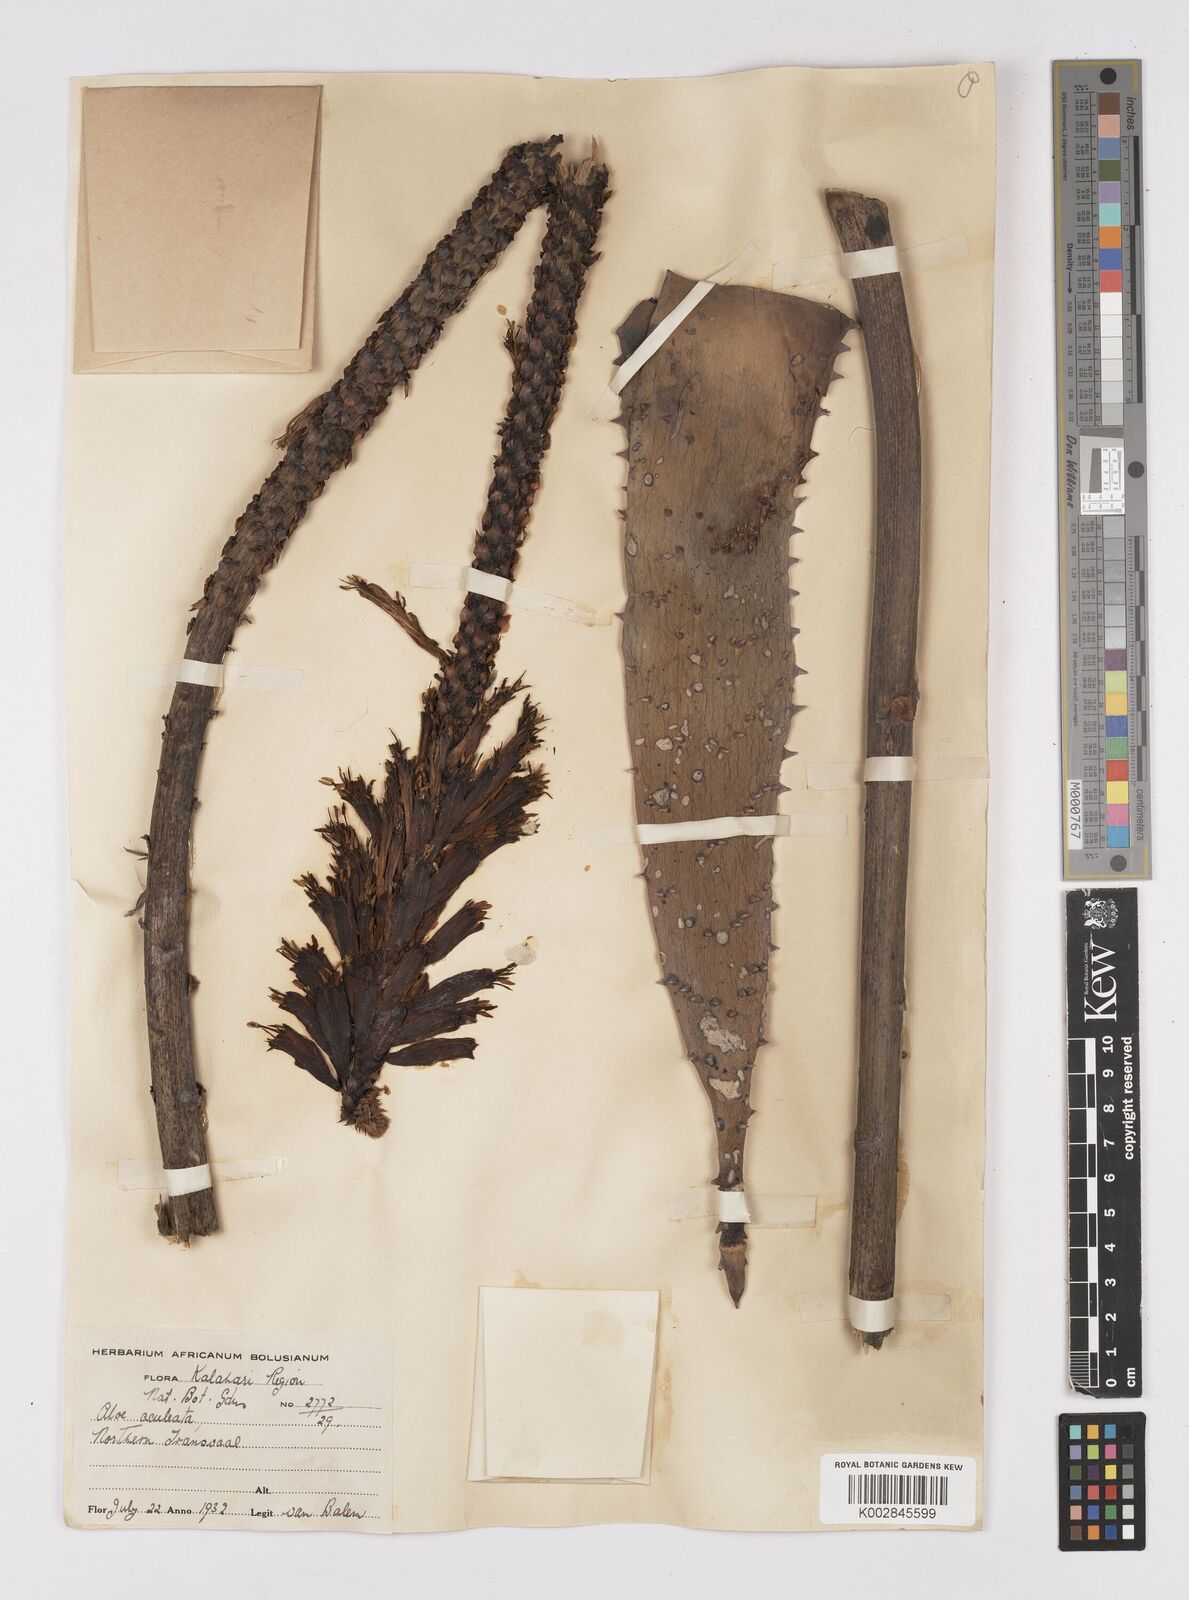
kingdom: Plantae
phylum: Tracheophyta
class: Liliopsida
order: Asparagales
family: Asphodelaceae
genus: Aloe
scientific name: Aloe aculeata
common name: Red hot poker aloe
